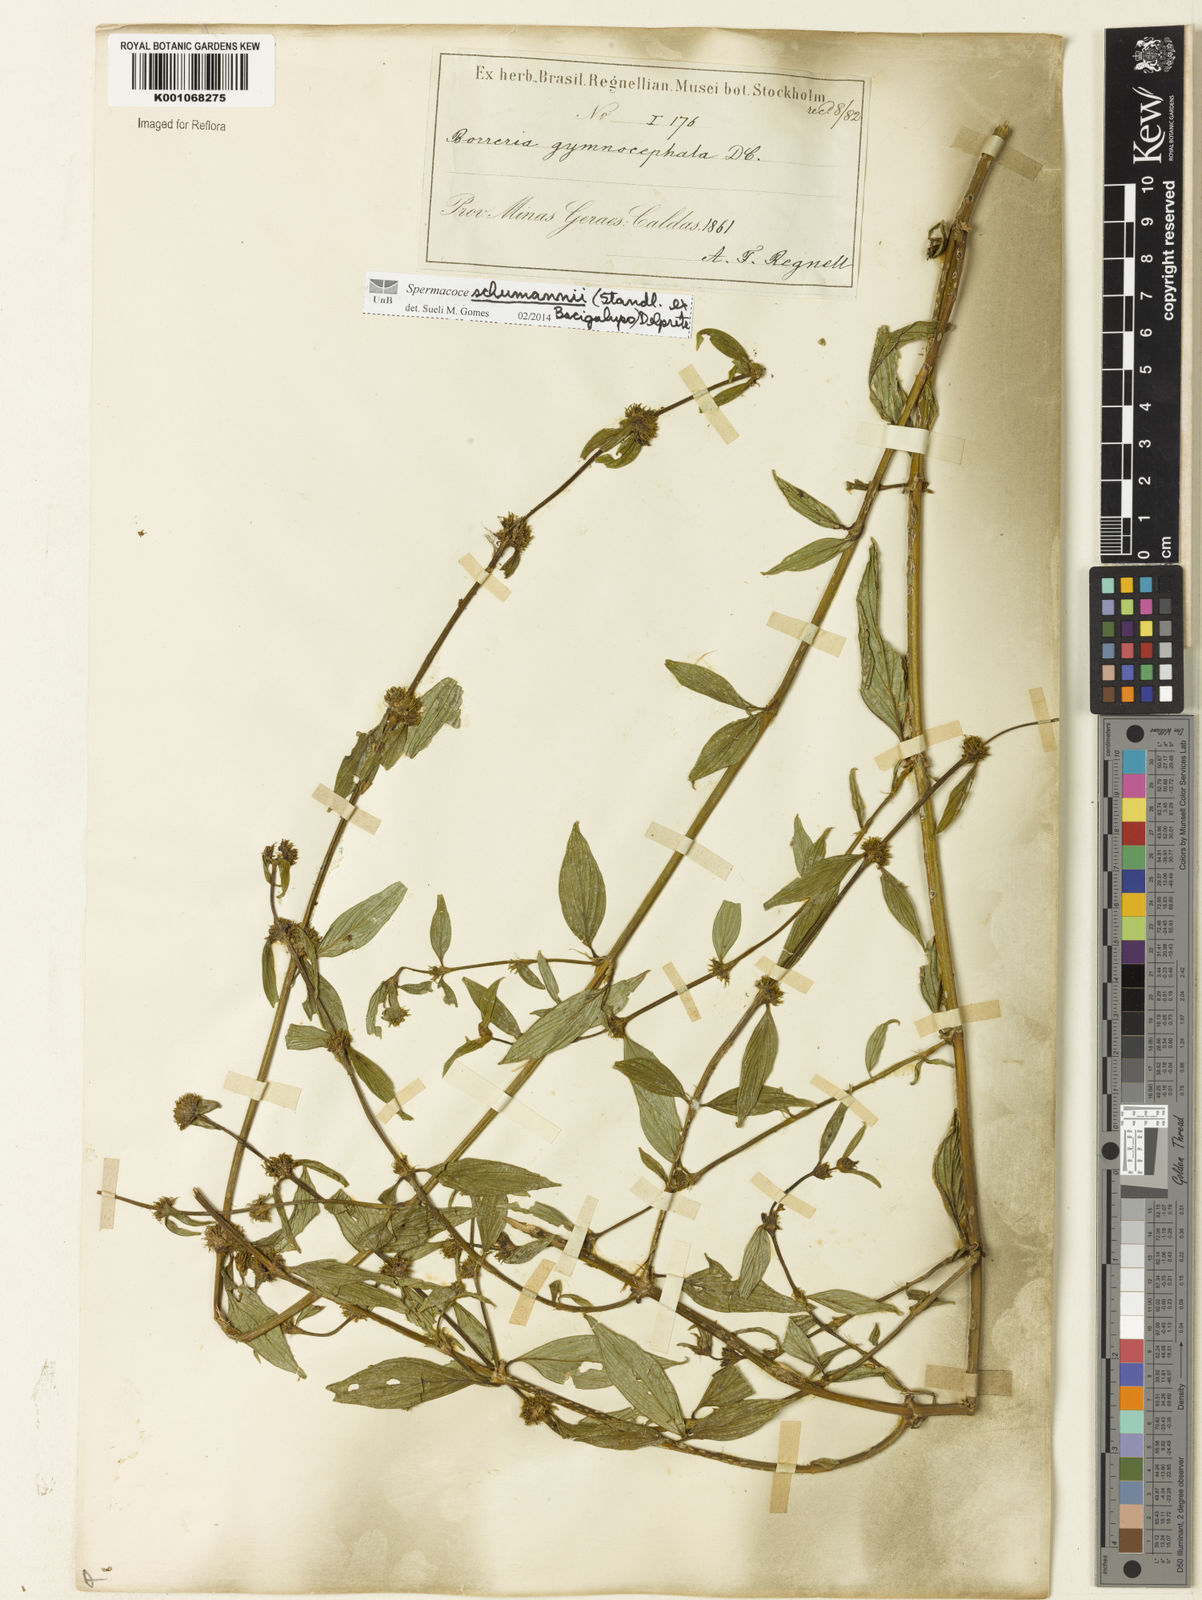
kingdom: Plantae
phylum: Tracheophyta
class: Magnoliopsida
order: Gentianales
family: Rubiaceae
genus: Spermacoce
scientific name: Spermacoce schumannii
